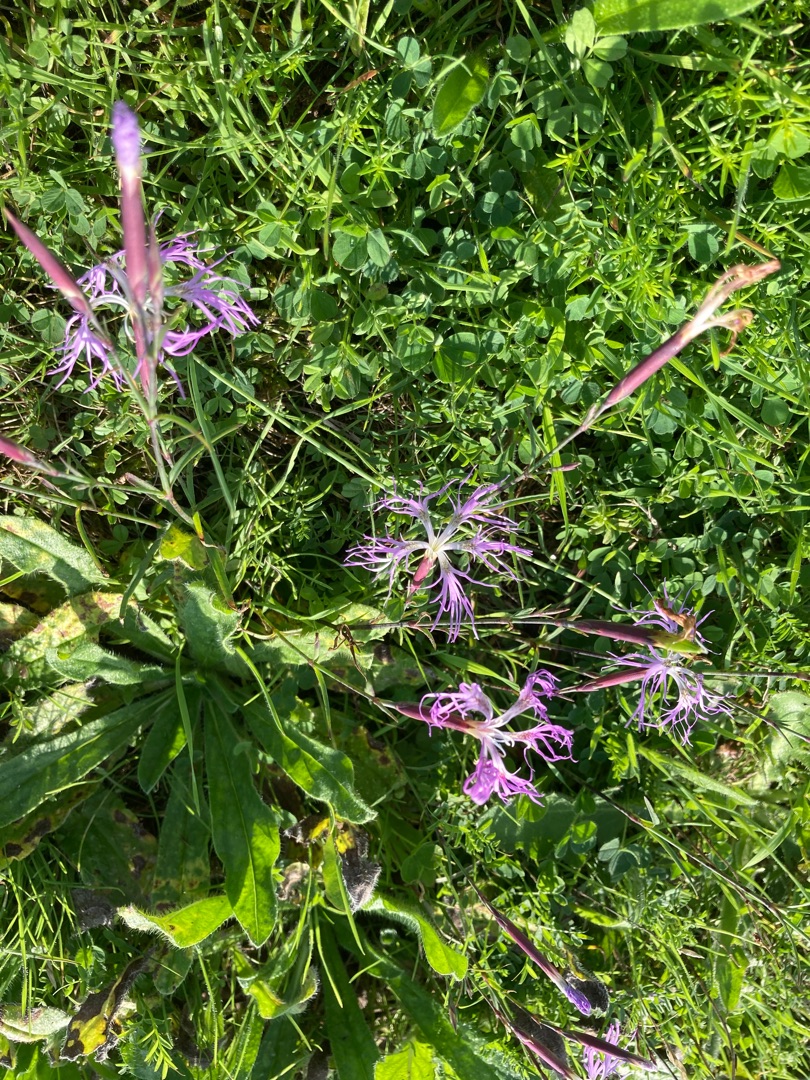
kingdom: Plantae
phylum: Tracheophyta
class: Magnoliopsida
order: Caryophyllales
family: Caryophyllaceae
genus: Dianthus
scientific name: Dianthus superbus
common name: Strand-nellike
